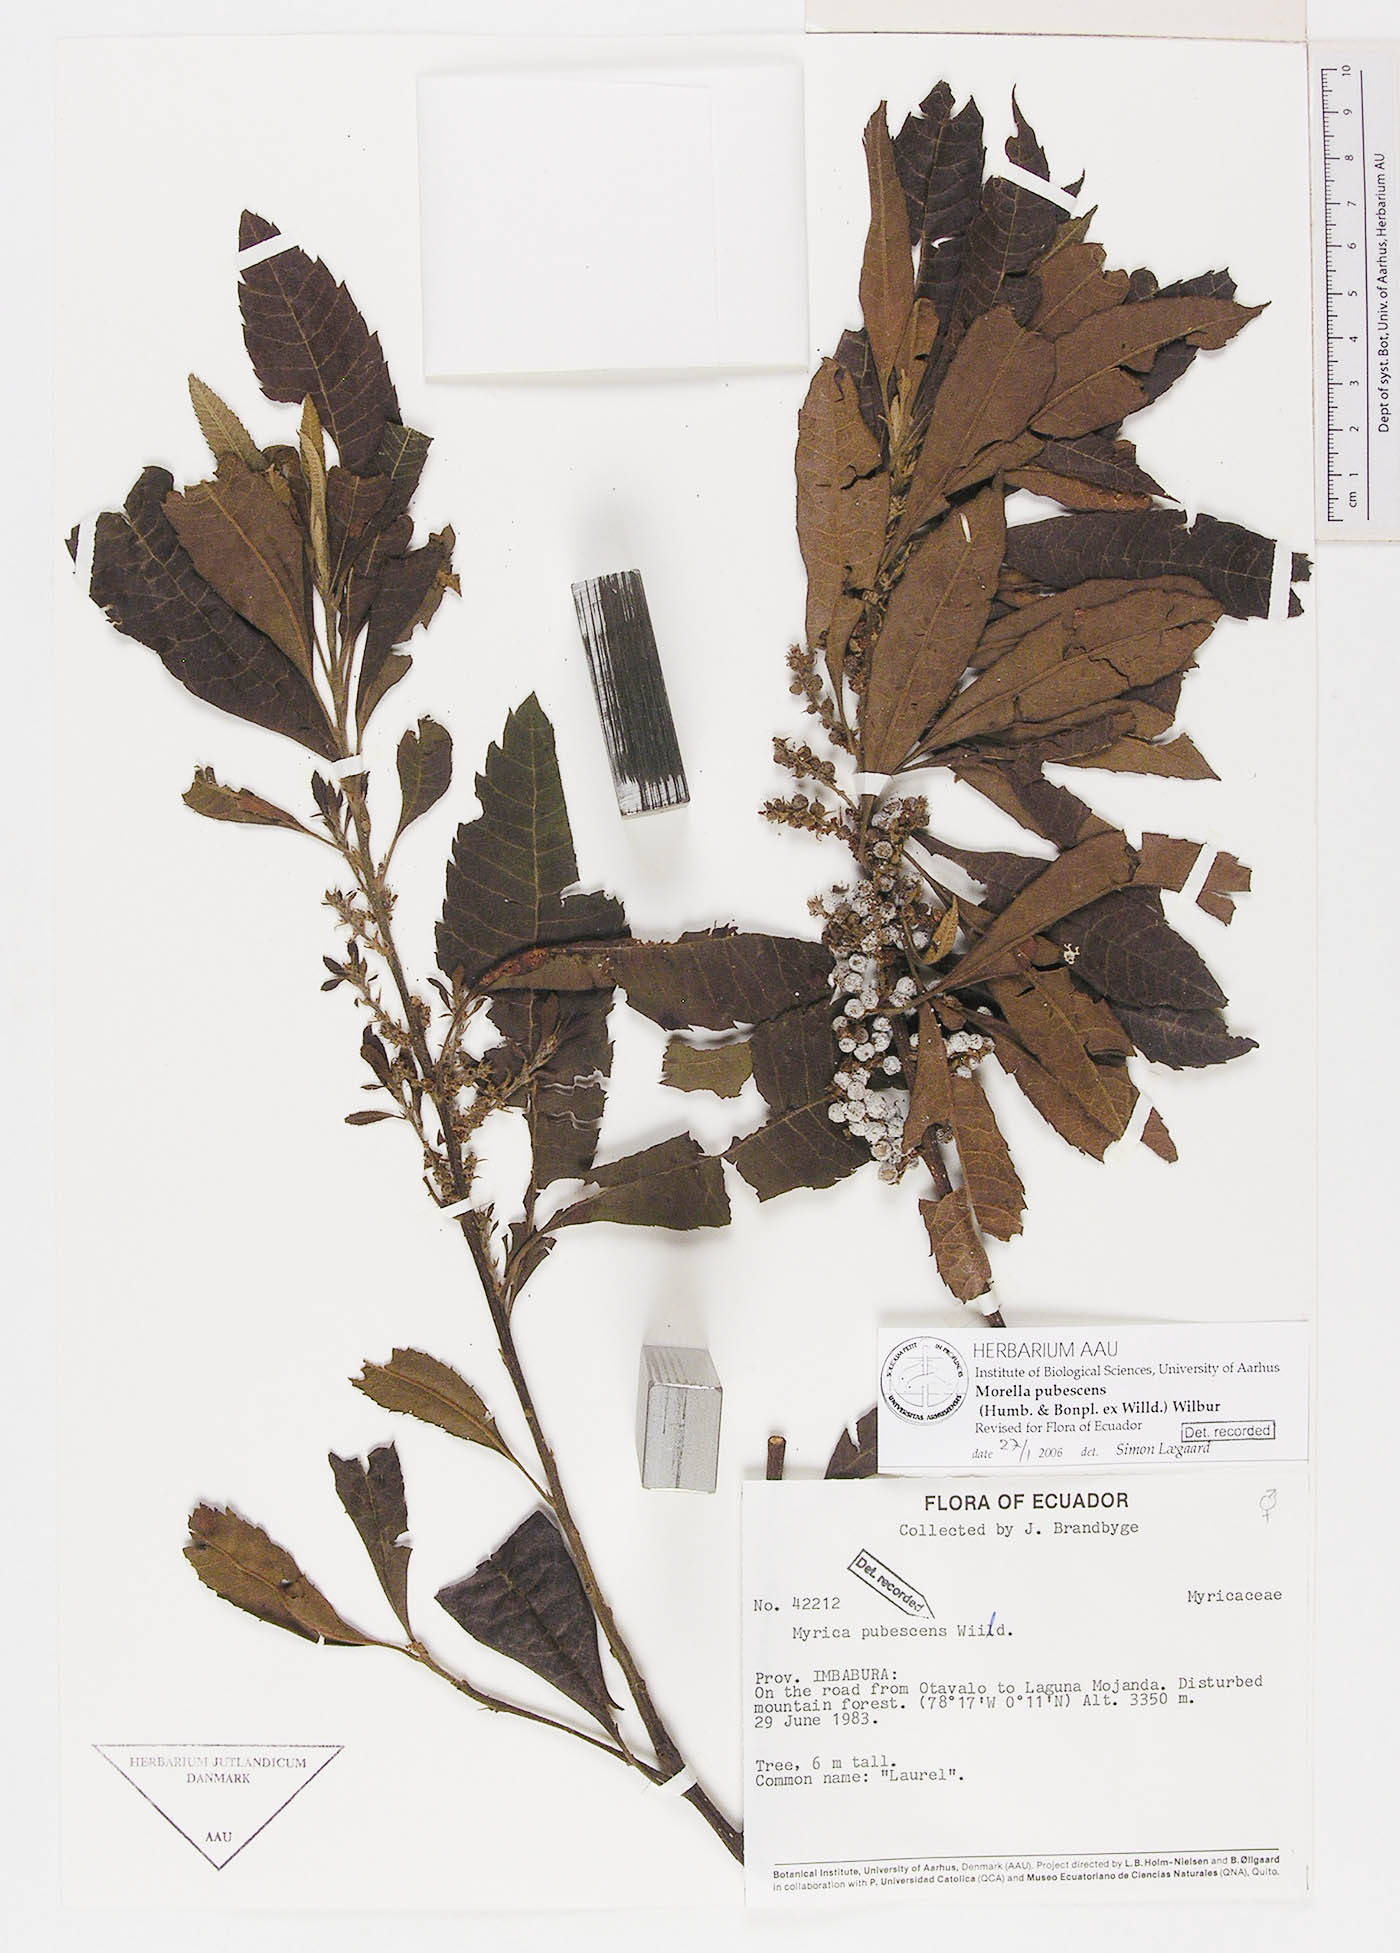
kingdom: Plantae
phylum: Tracheophyta
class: Magnoliopsida
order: Fagales
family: Myricaceae
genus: Morella
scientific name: Morella pubescens
